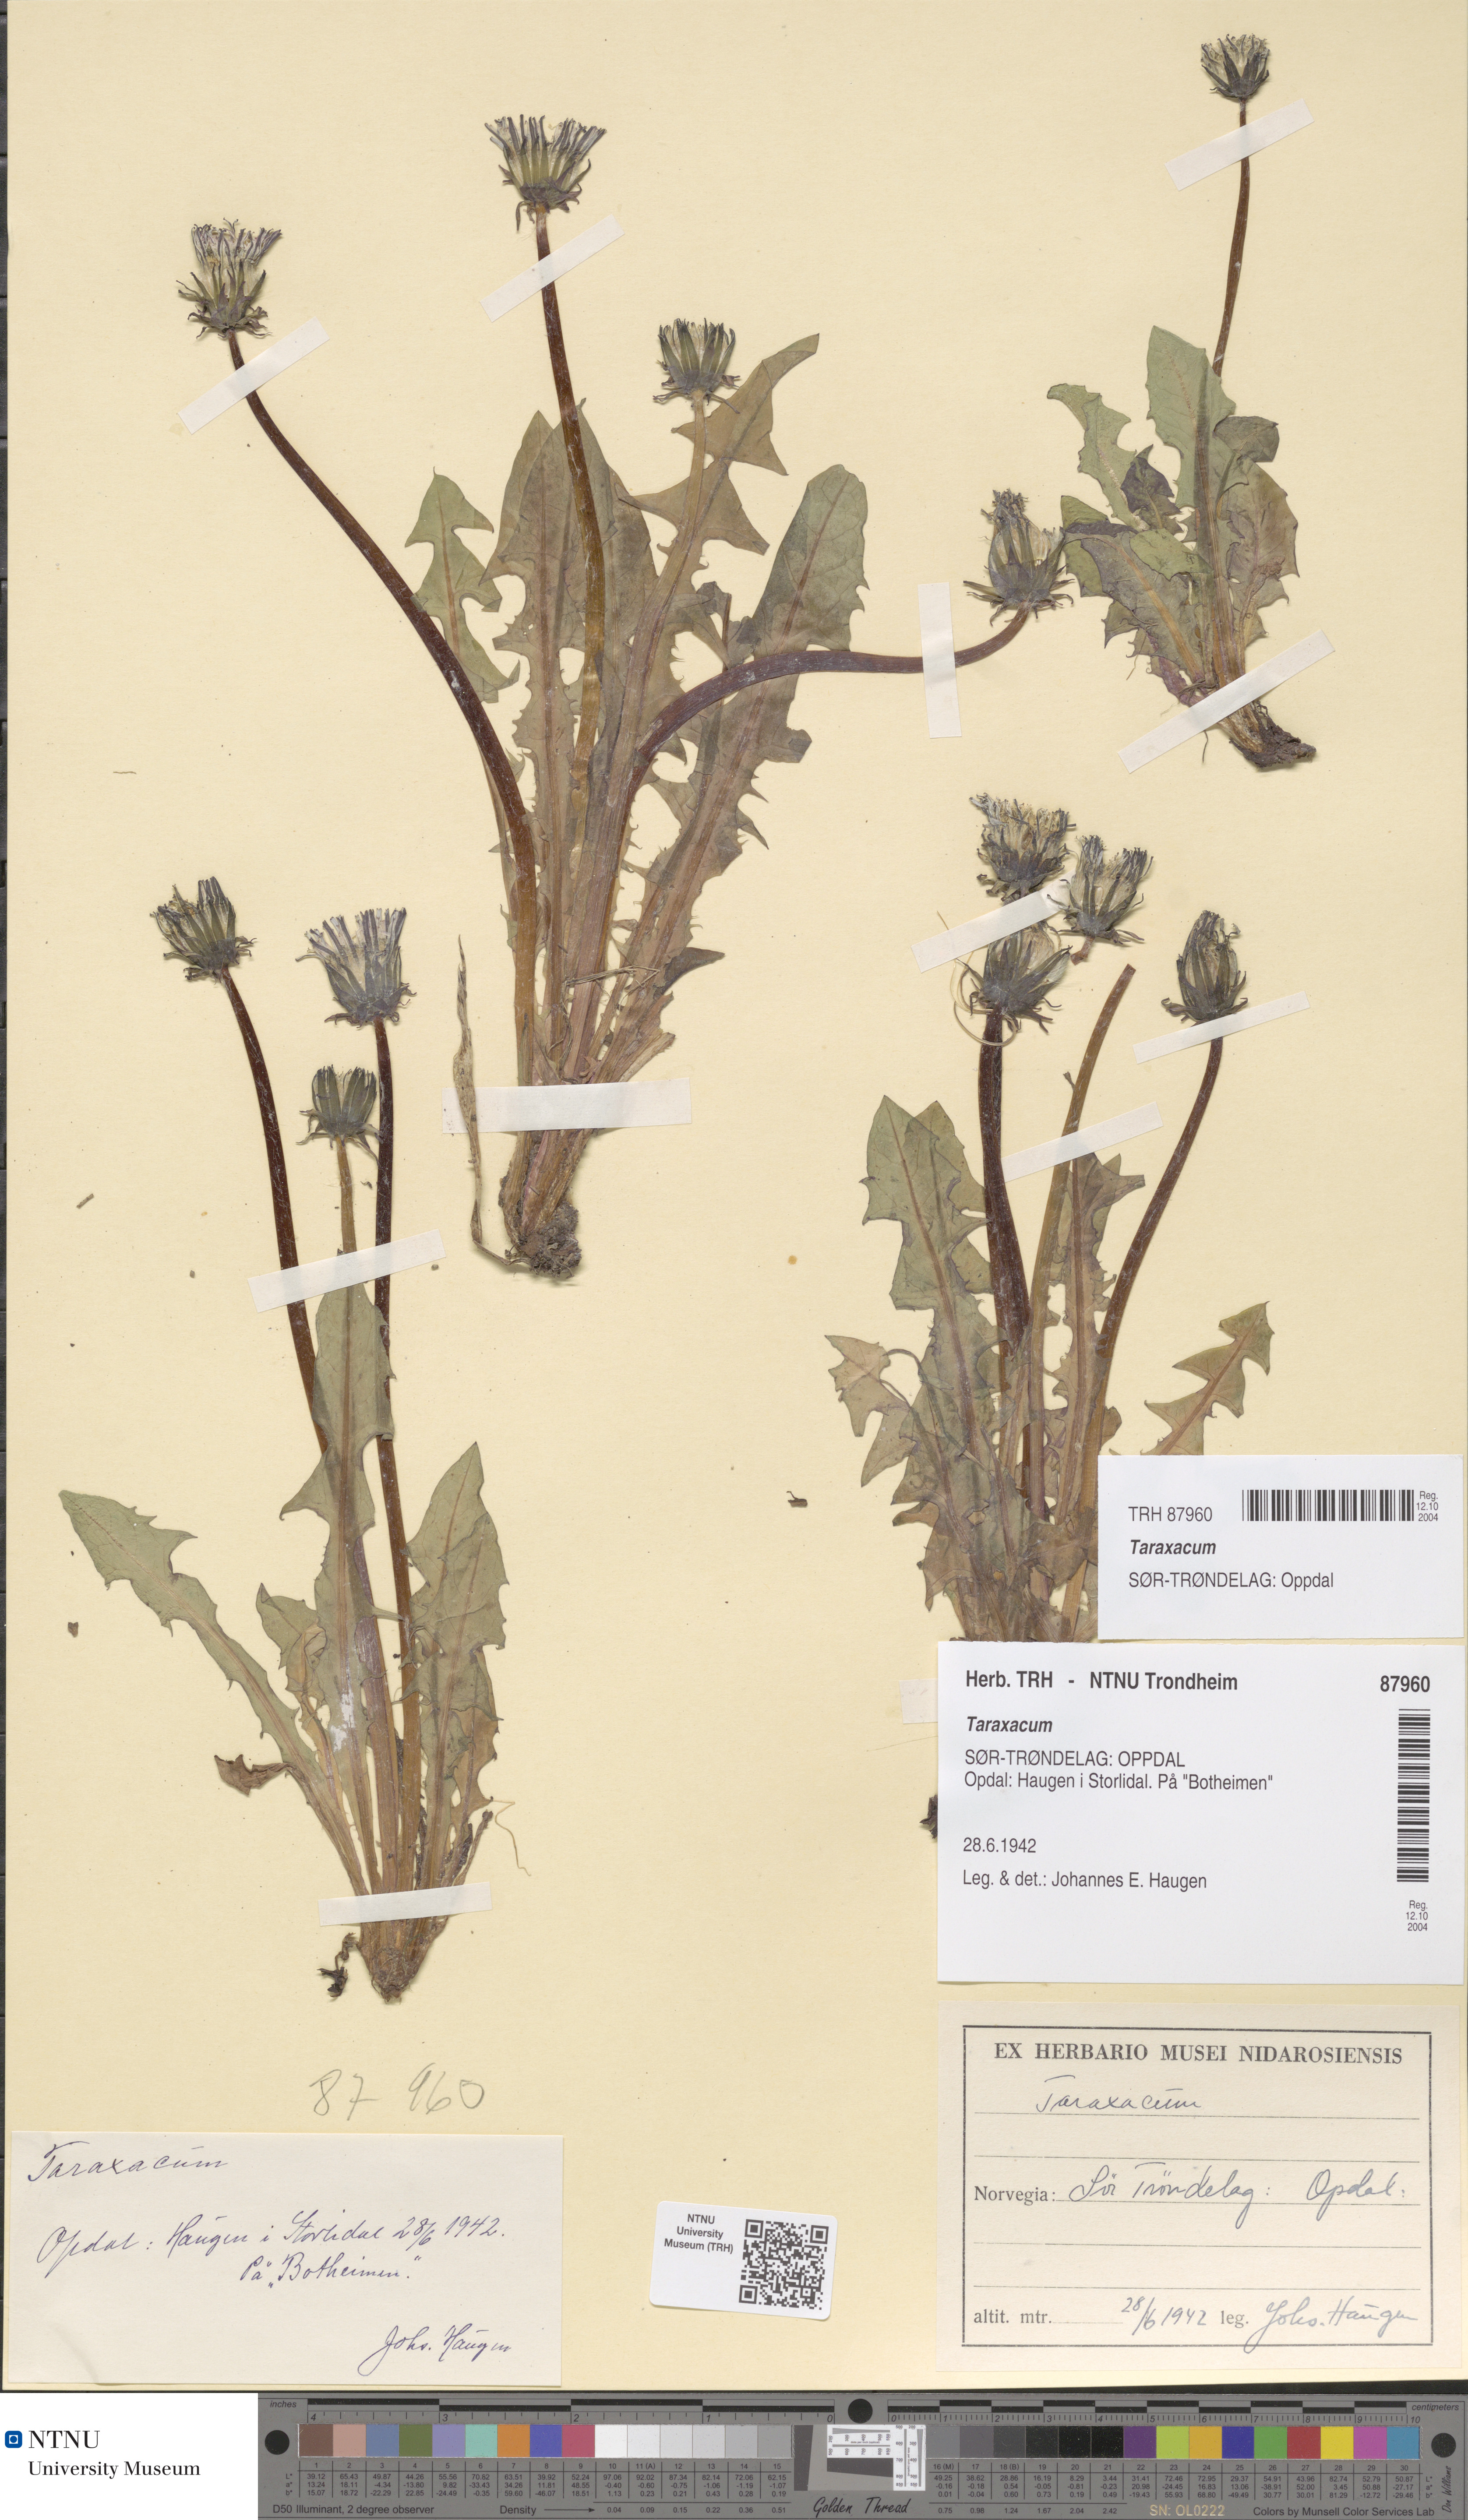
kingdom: Plantae
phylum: Tracheophyta
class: Magnoliopsida
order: Asterales
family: Asteraceae
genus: Taraxacum
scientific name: Taraxacum
